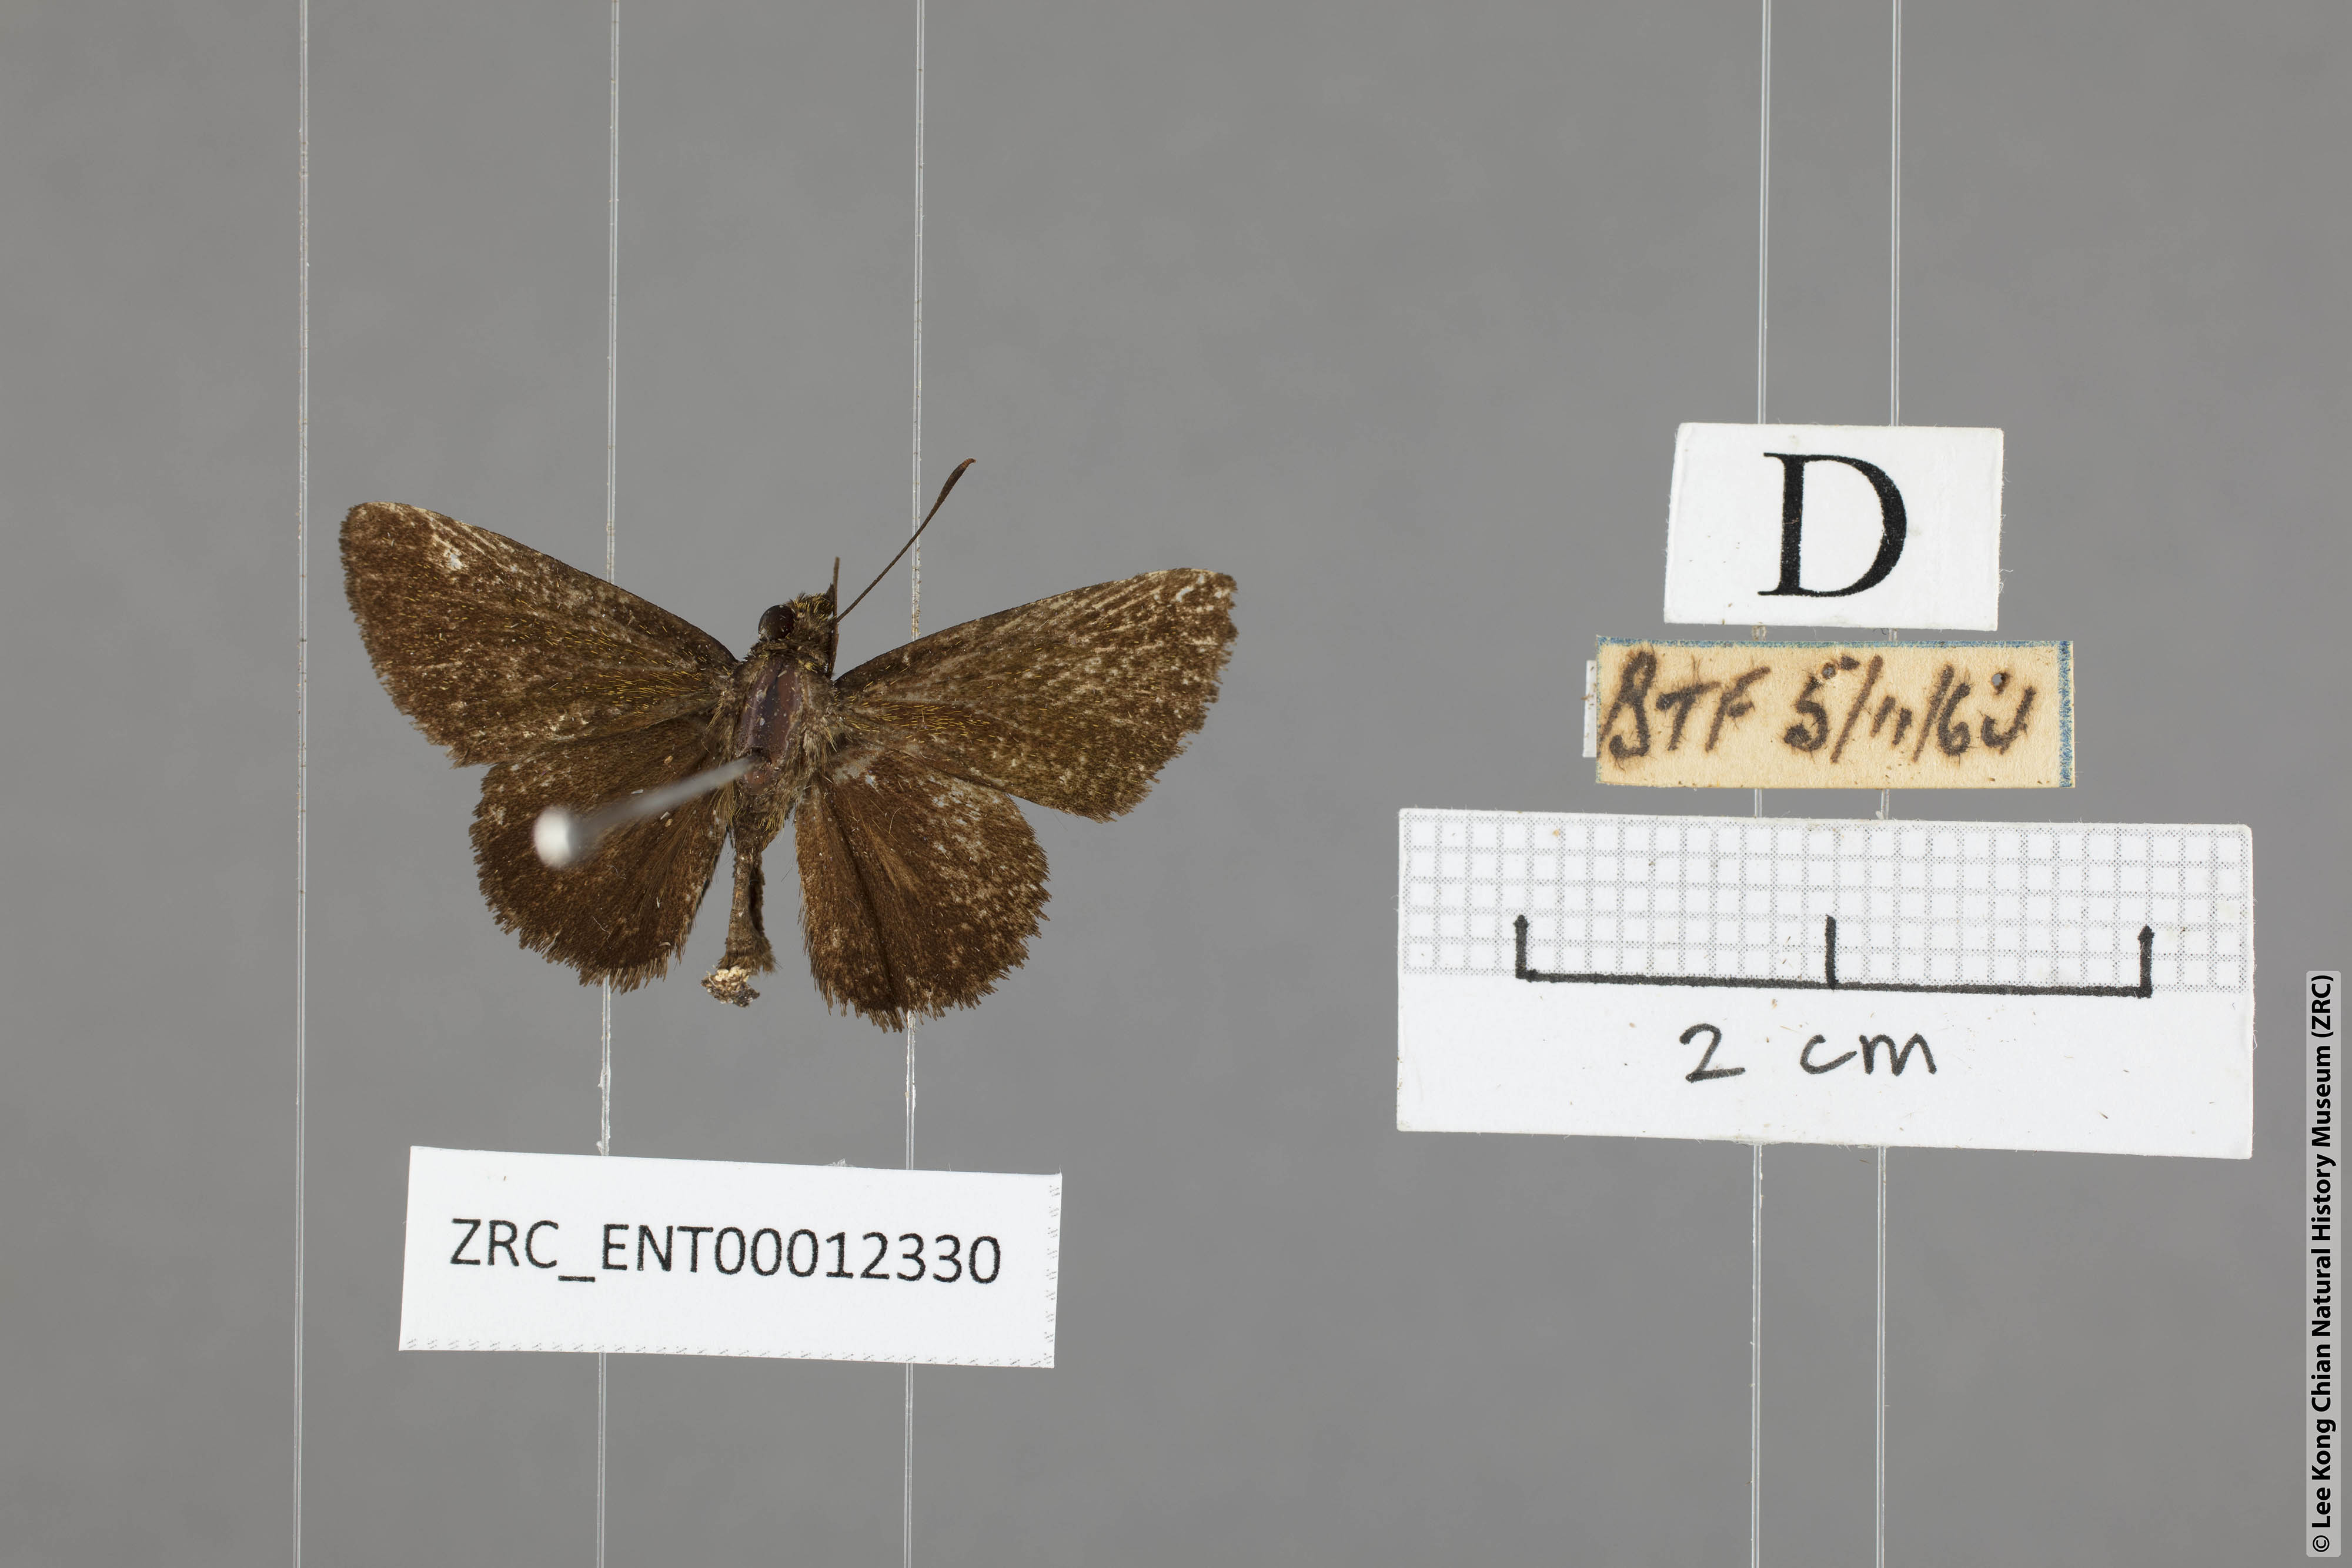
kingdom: Animalia
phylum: Arthropoda
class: Insecta
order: Lepidoptera
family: Hesperiidae
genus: Arnetta
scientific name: Arnetta verones
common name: Sumatran bob
